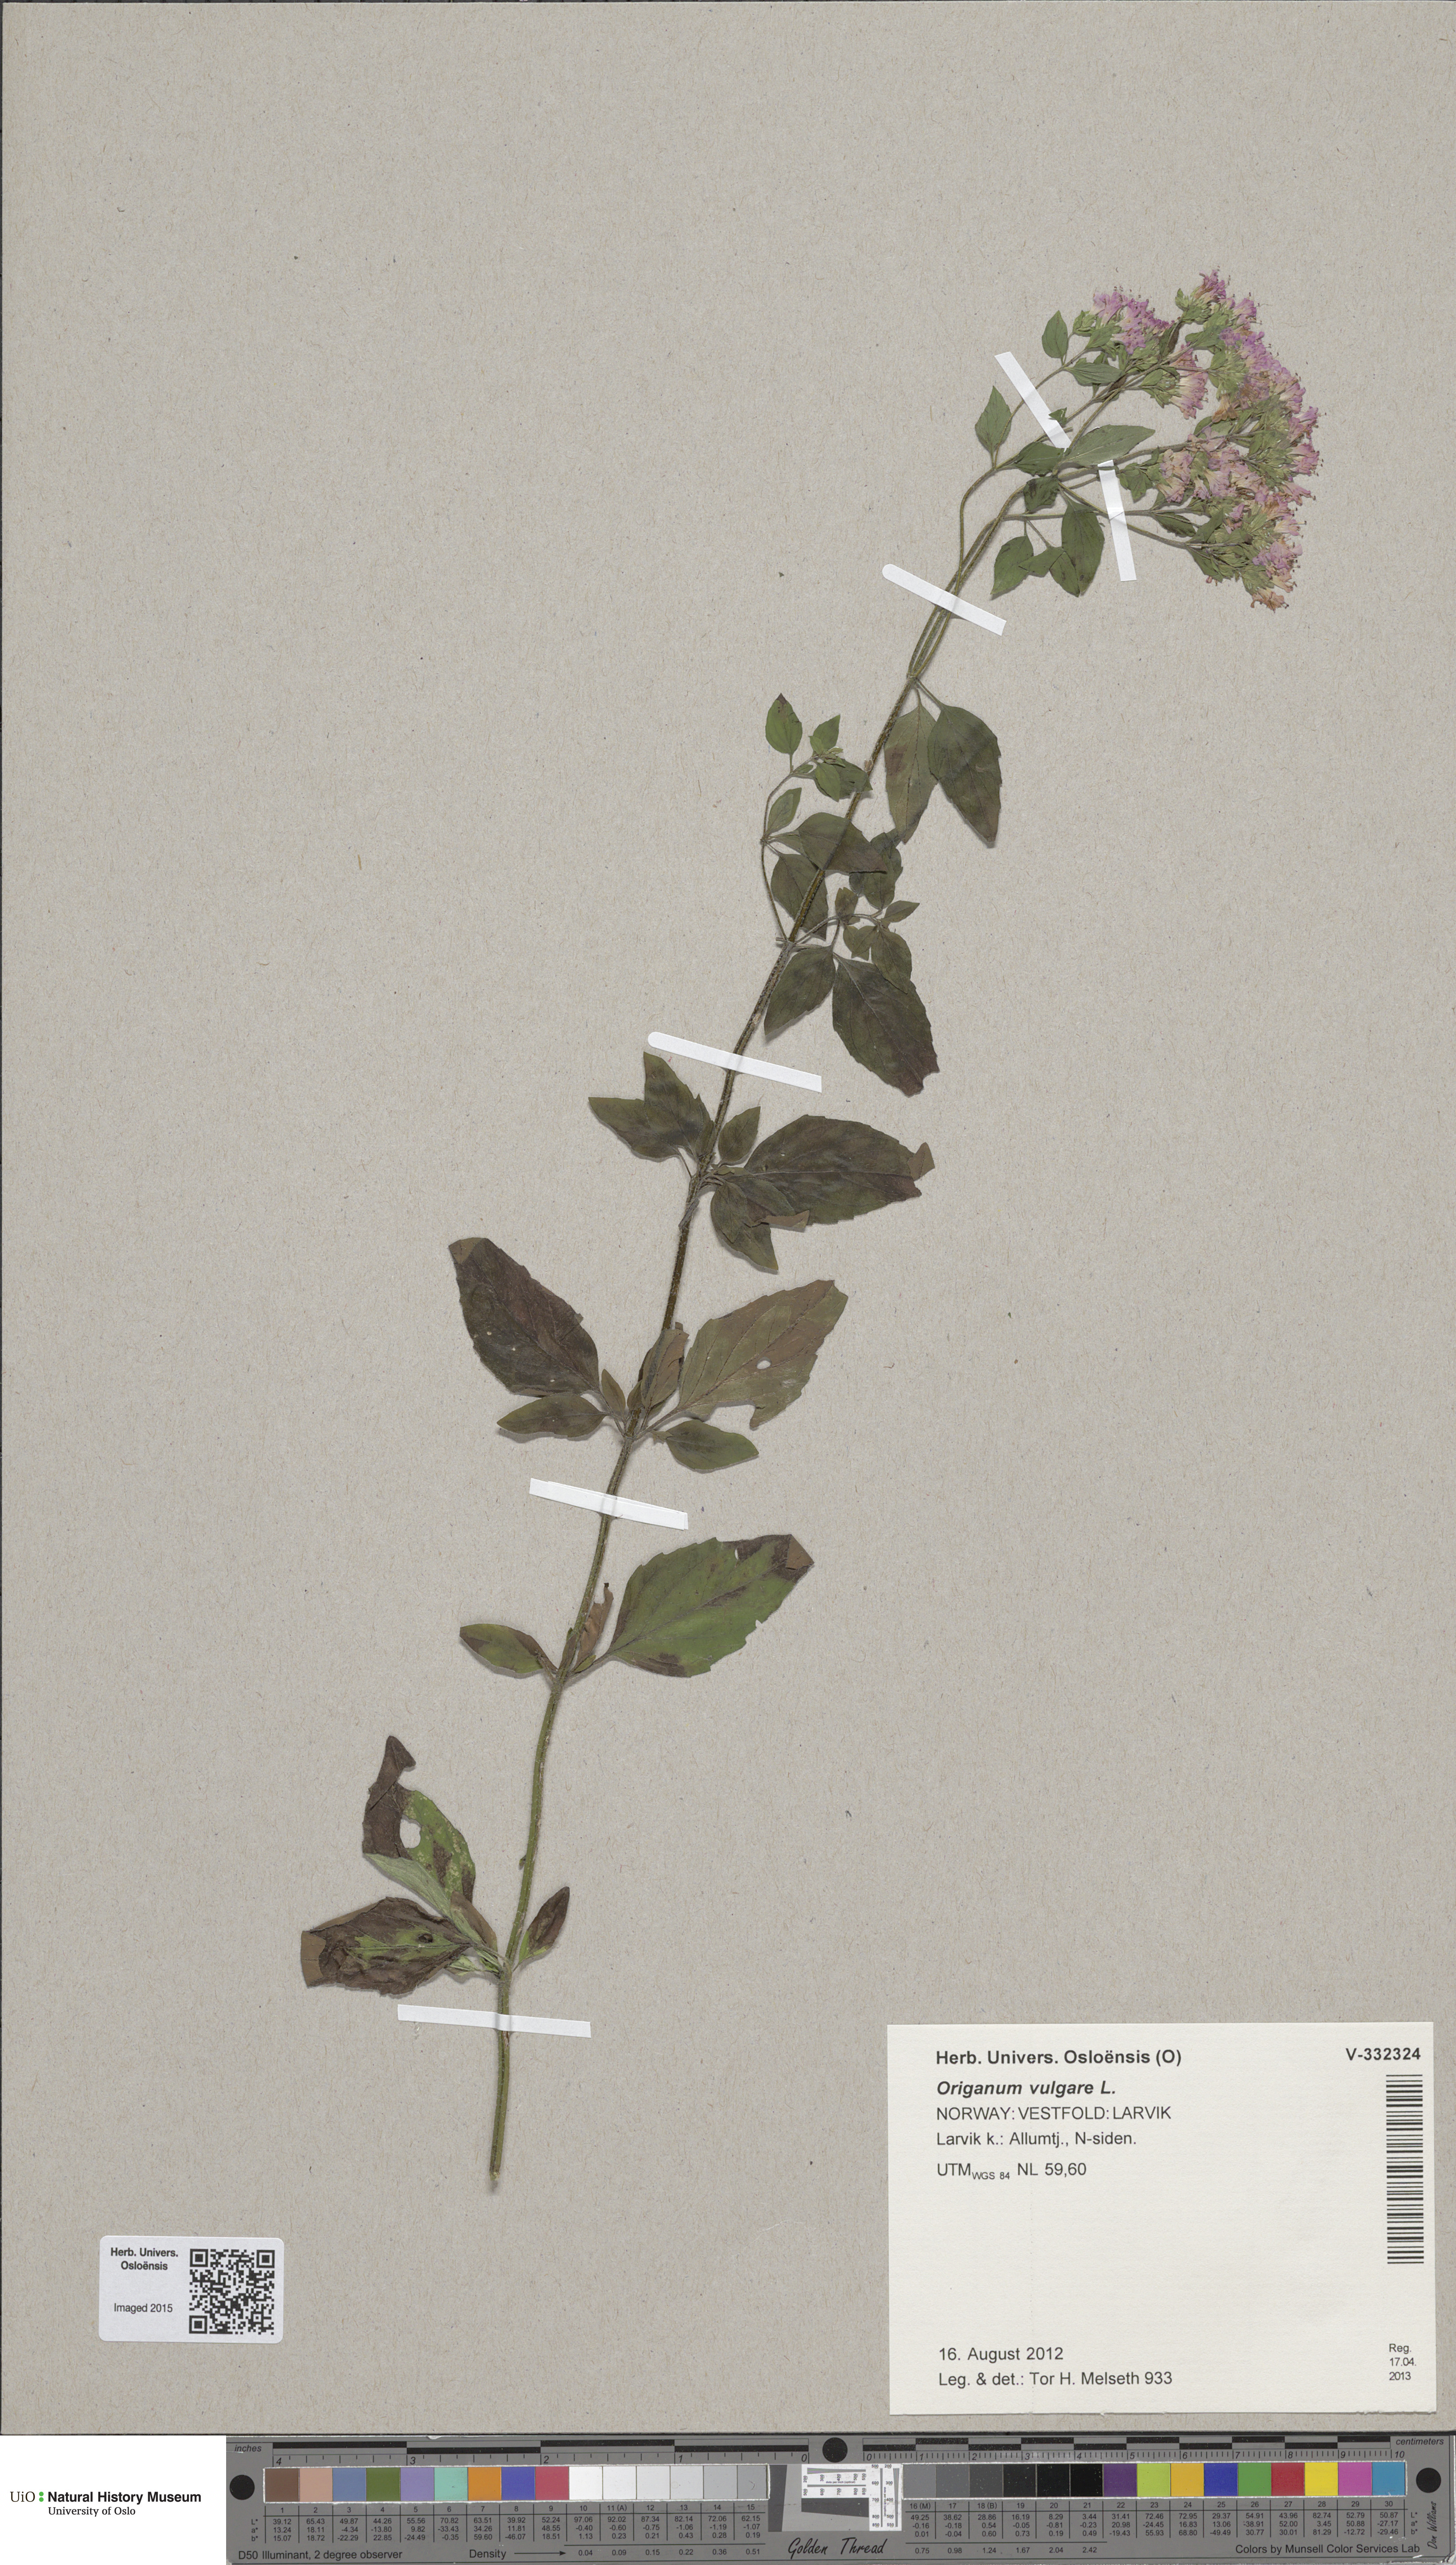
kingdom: Plantae
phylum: Tracheophyta
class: Magnoliopsida
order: Lamiales
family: Lamiaceae
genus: Origanum
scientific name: Origanum vulgare
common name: Wild marjoram
